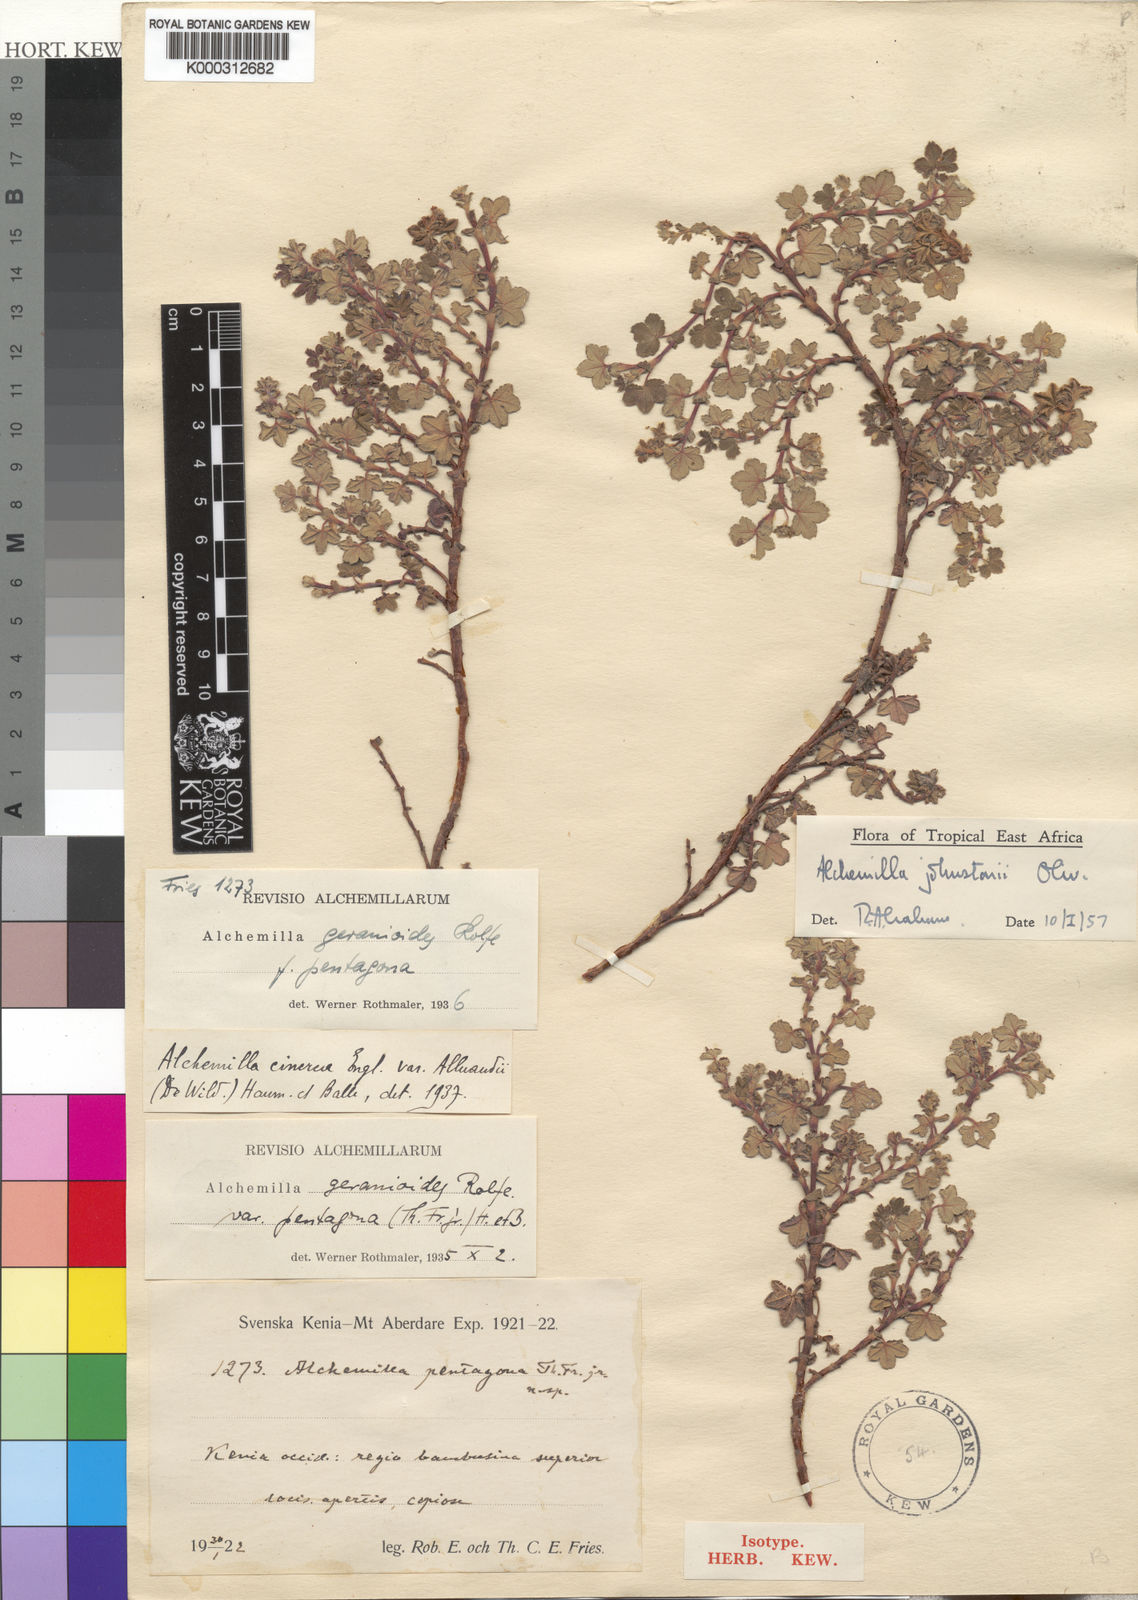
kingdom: Plantae
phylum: Tracheophyta
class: Magnoliopsida
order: Rosales
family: Rosaceae
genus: Alchemilla
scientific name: Alchemilla johnstonii
